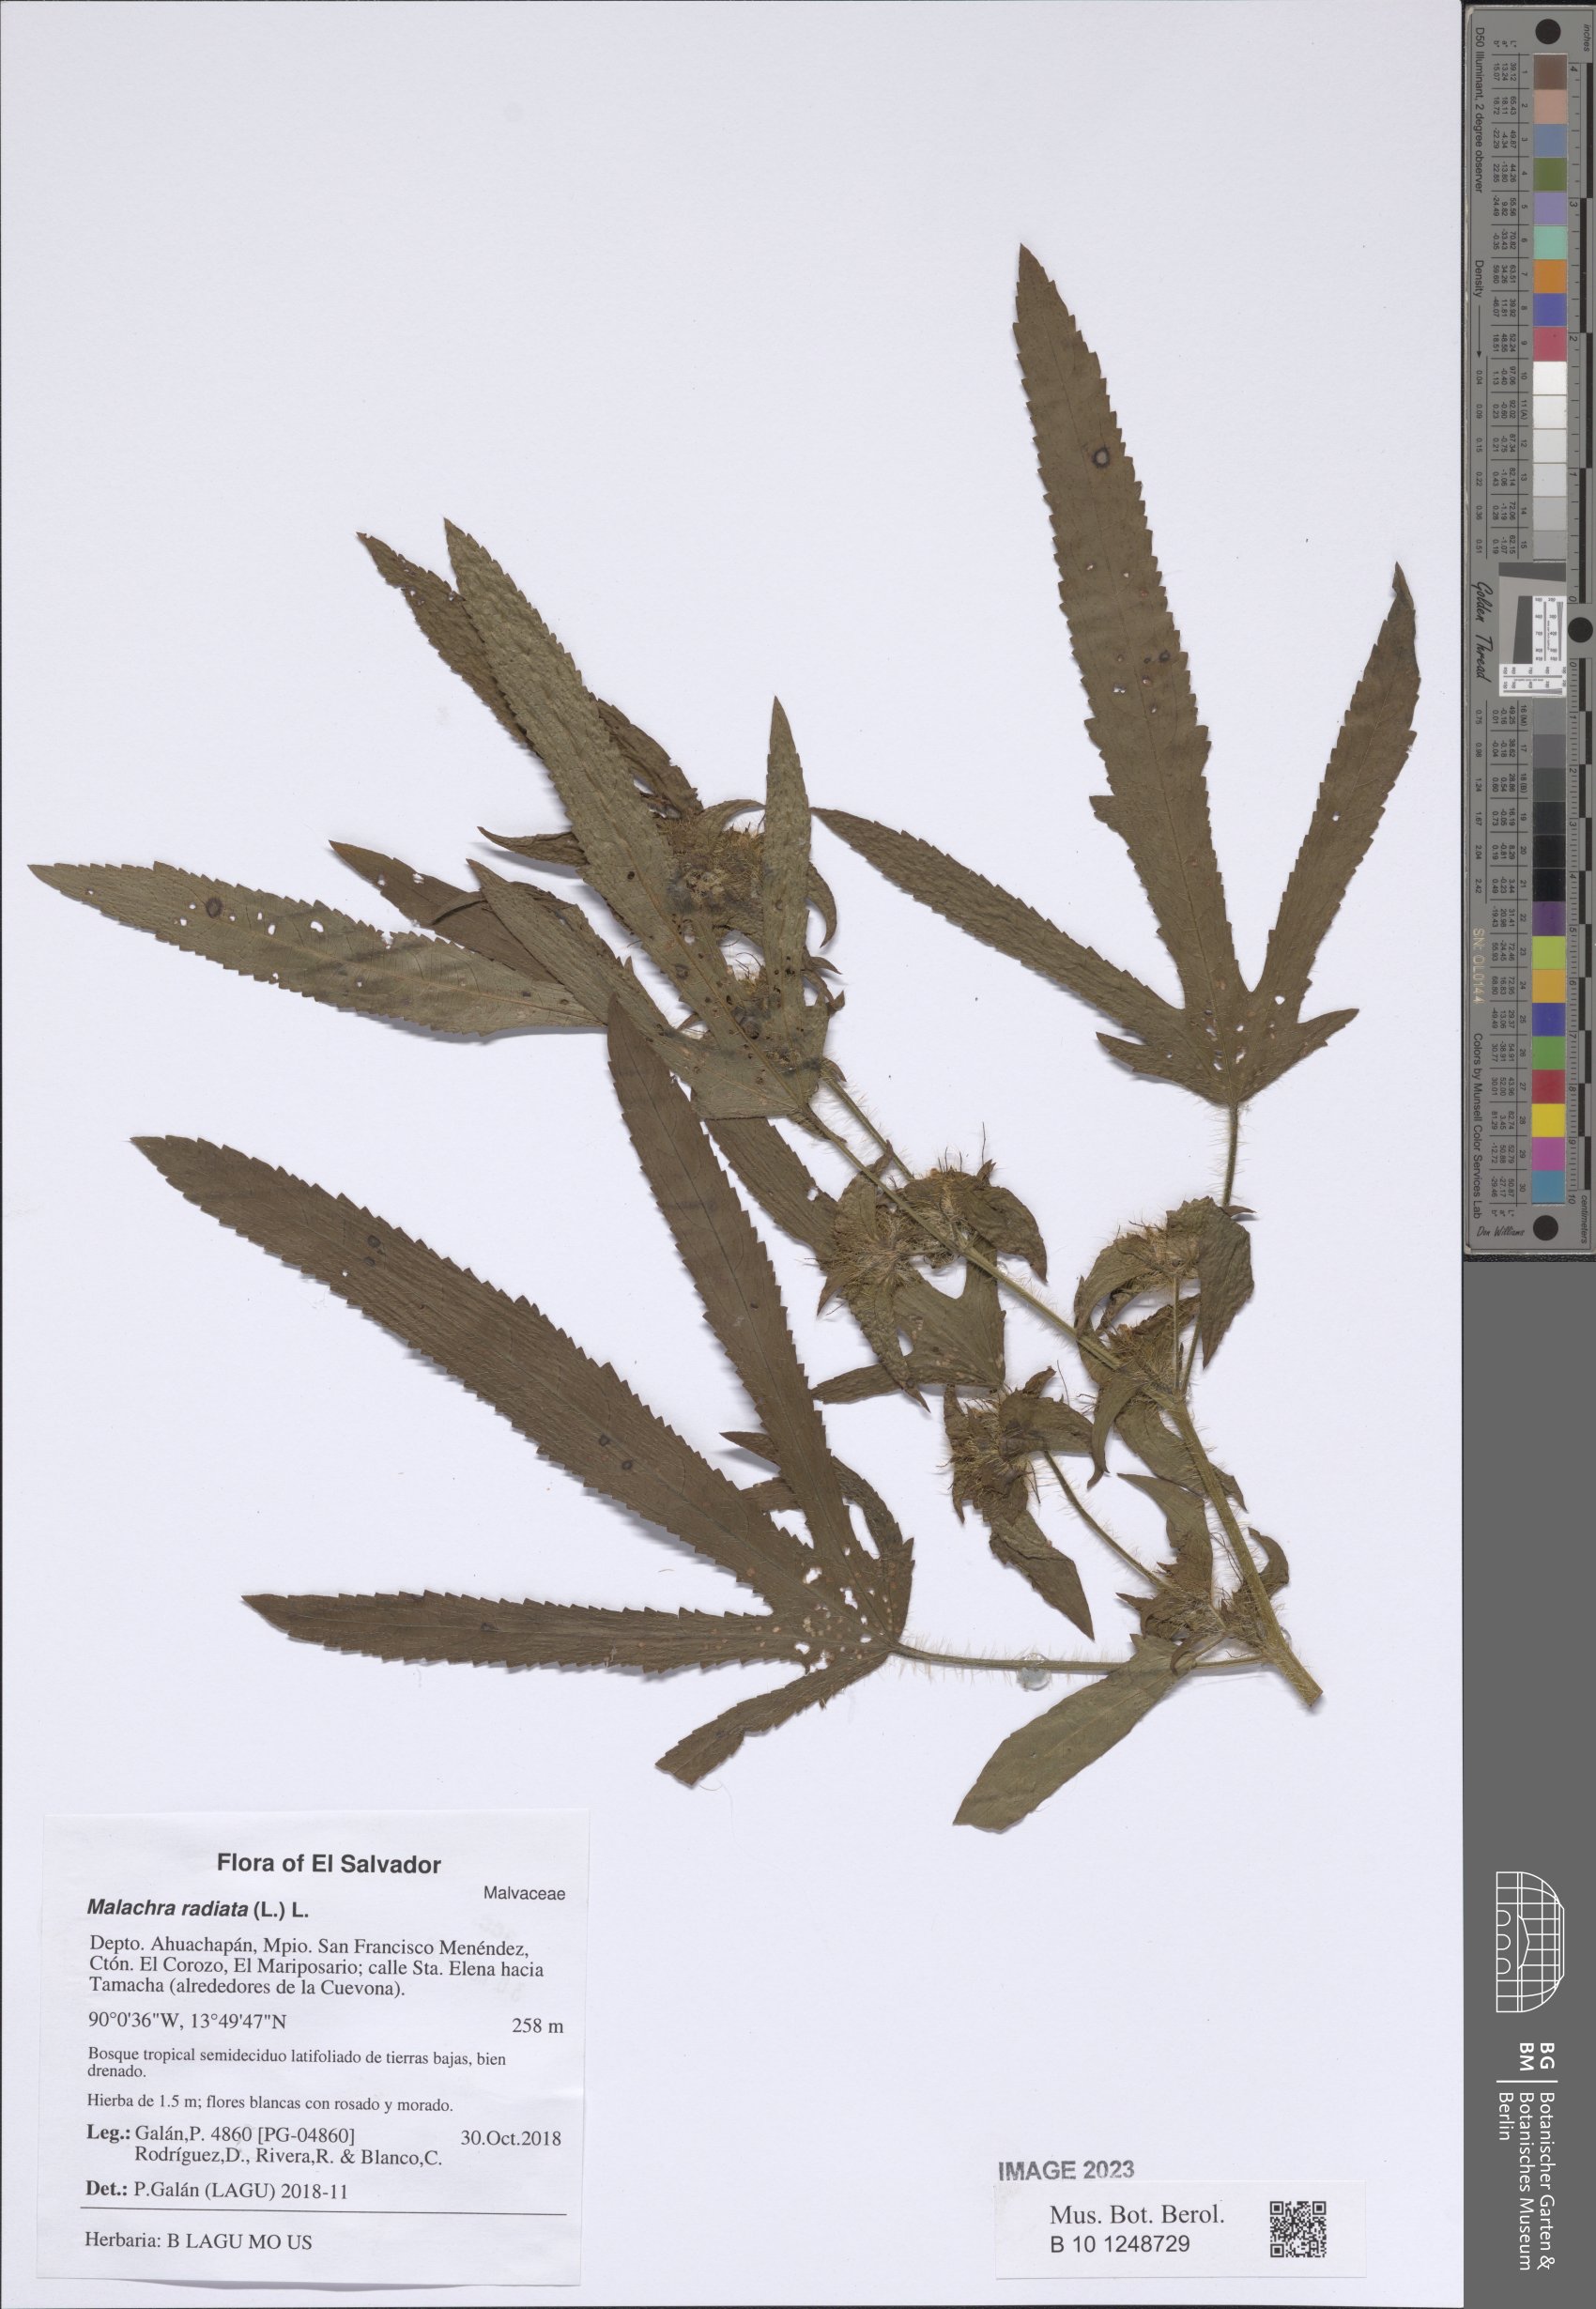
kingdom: Plantae
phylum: Tracheophyta
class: Magnoliopsida
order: Malvales
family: Malvaceae
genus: Malachra
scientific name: Malachra radiata
